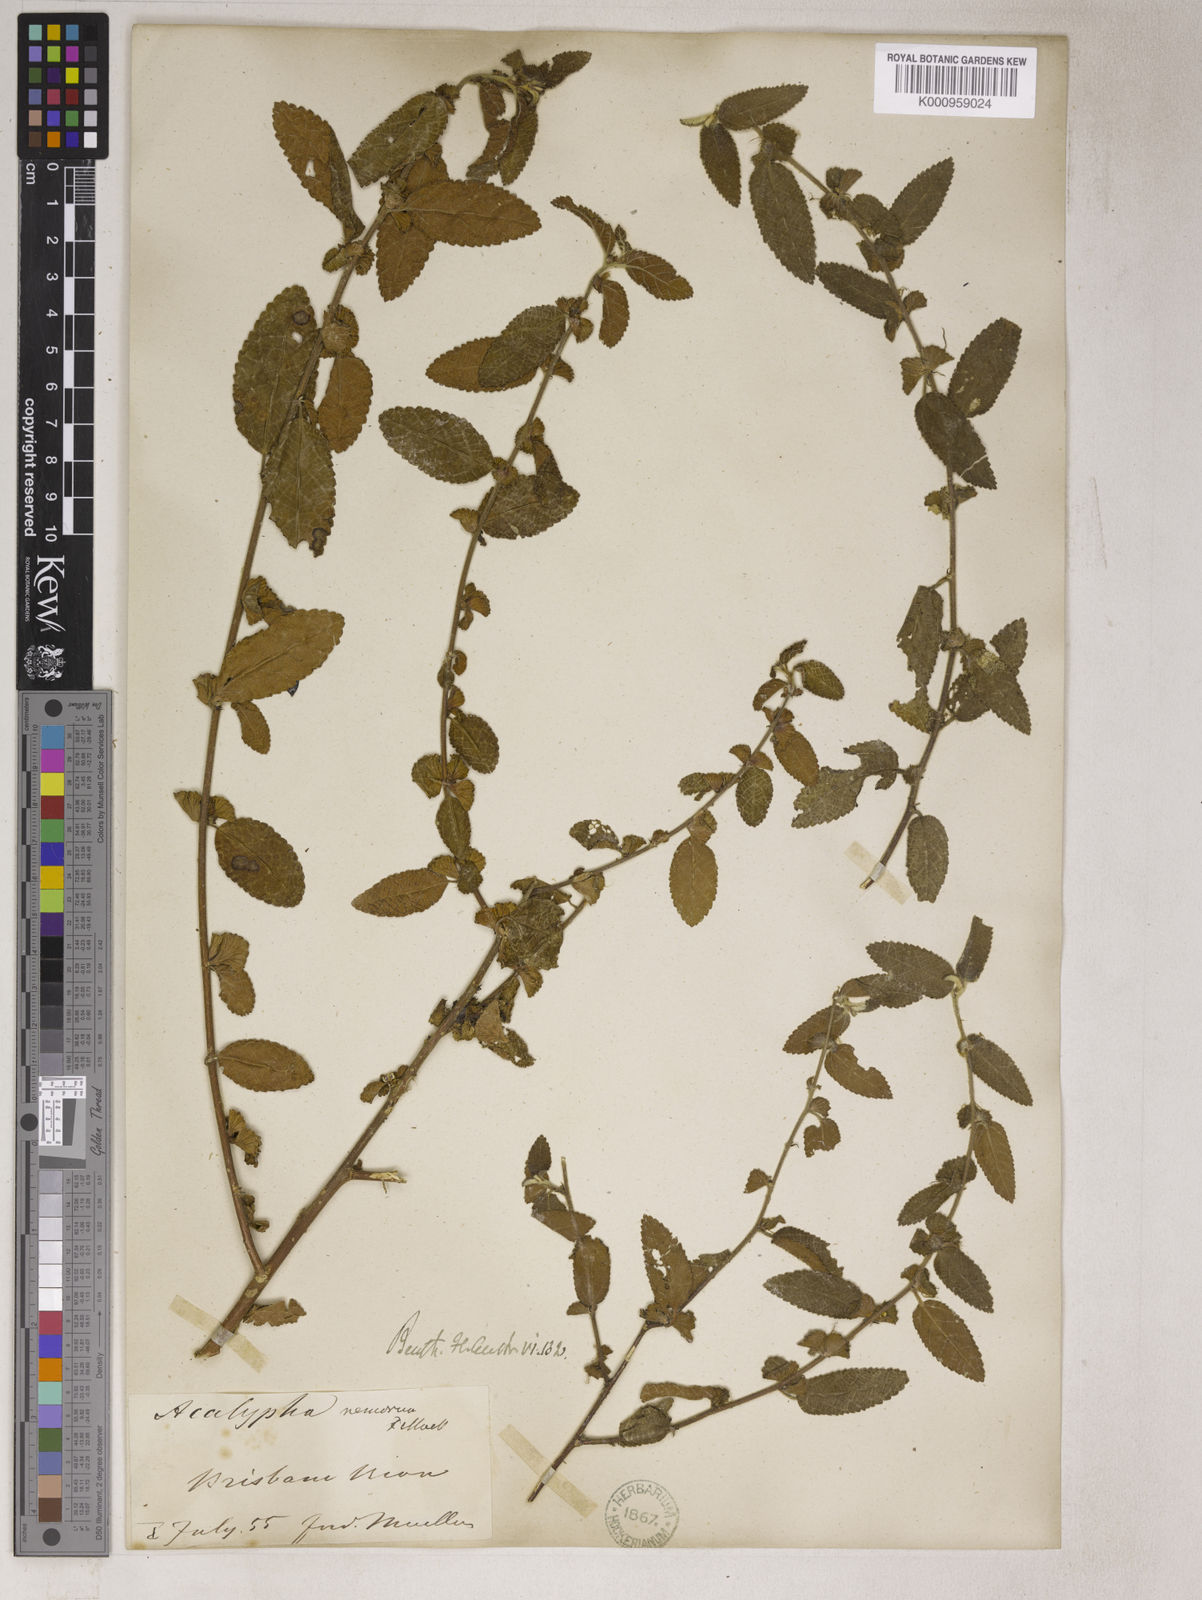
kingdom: Plantae
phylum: Tracheophyta
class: Magnoliopsida
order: Malpighiales
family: Euphorbiaceae
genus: Acalypha
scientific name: Acalypha
